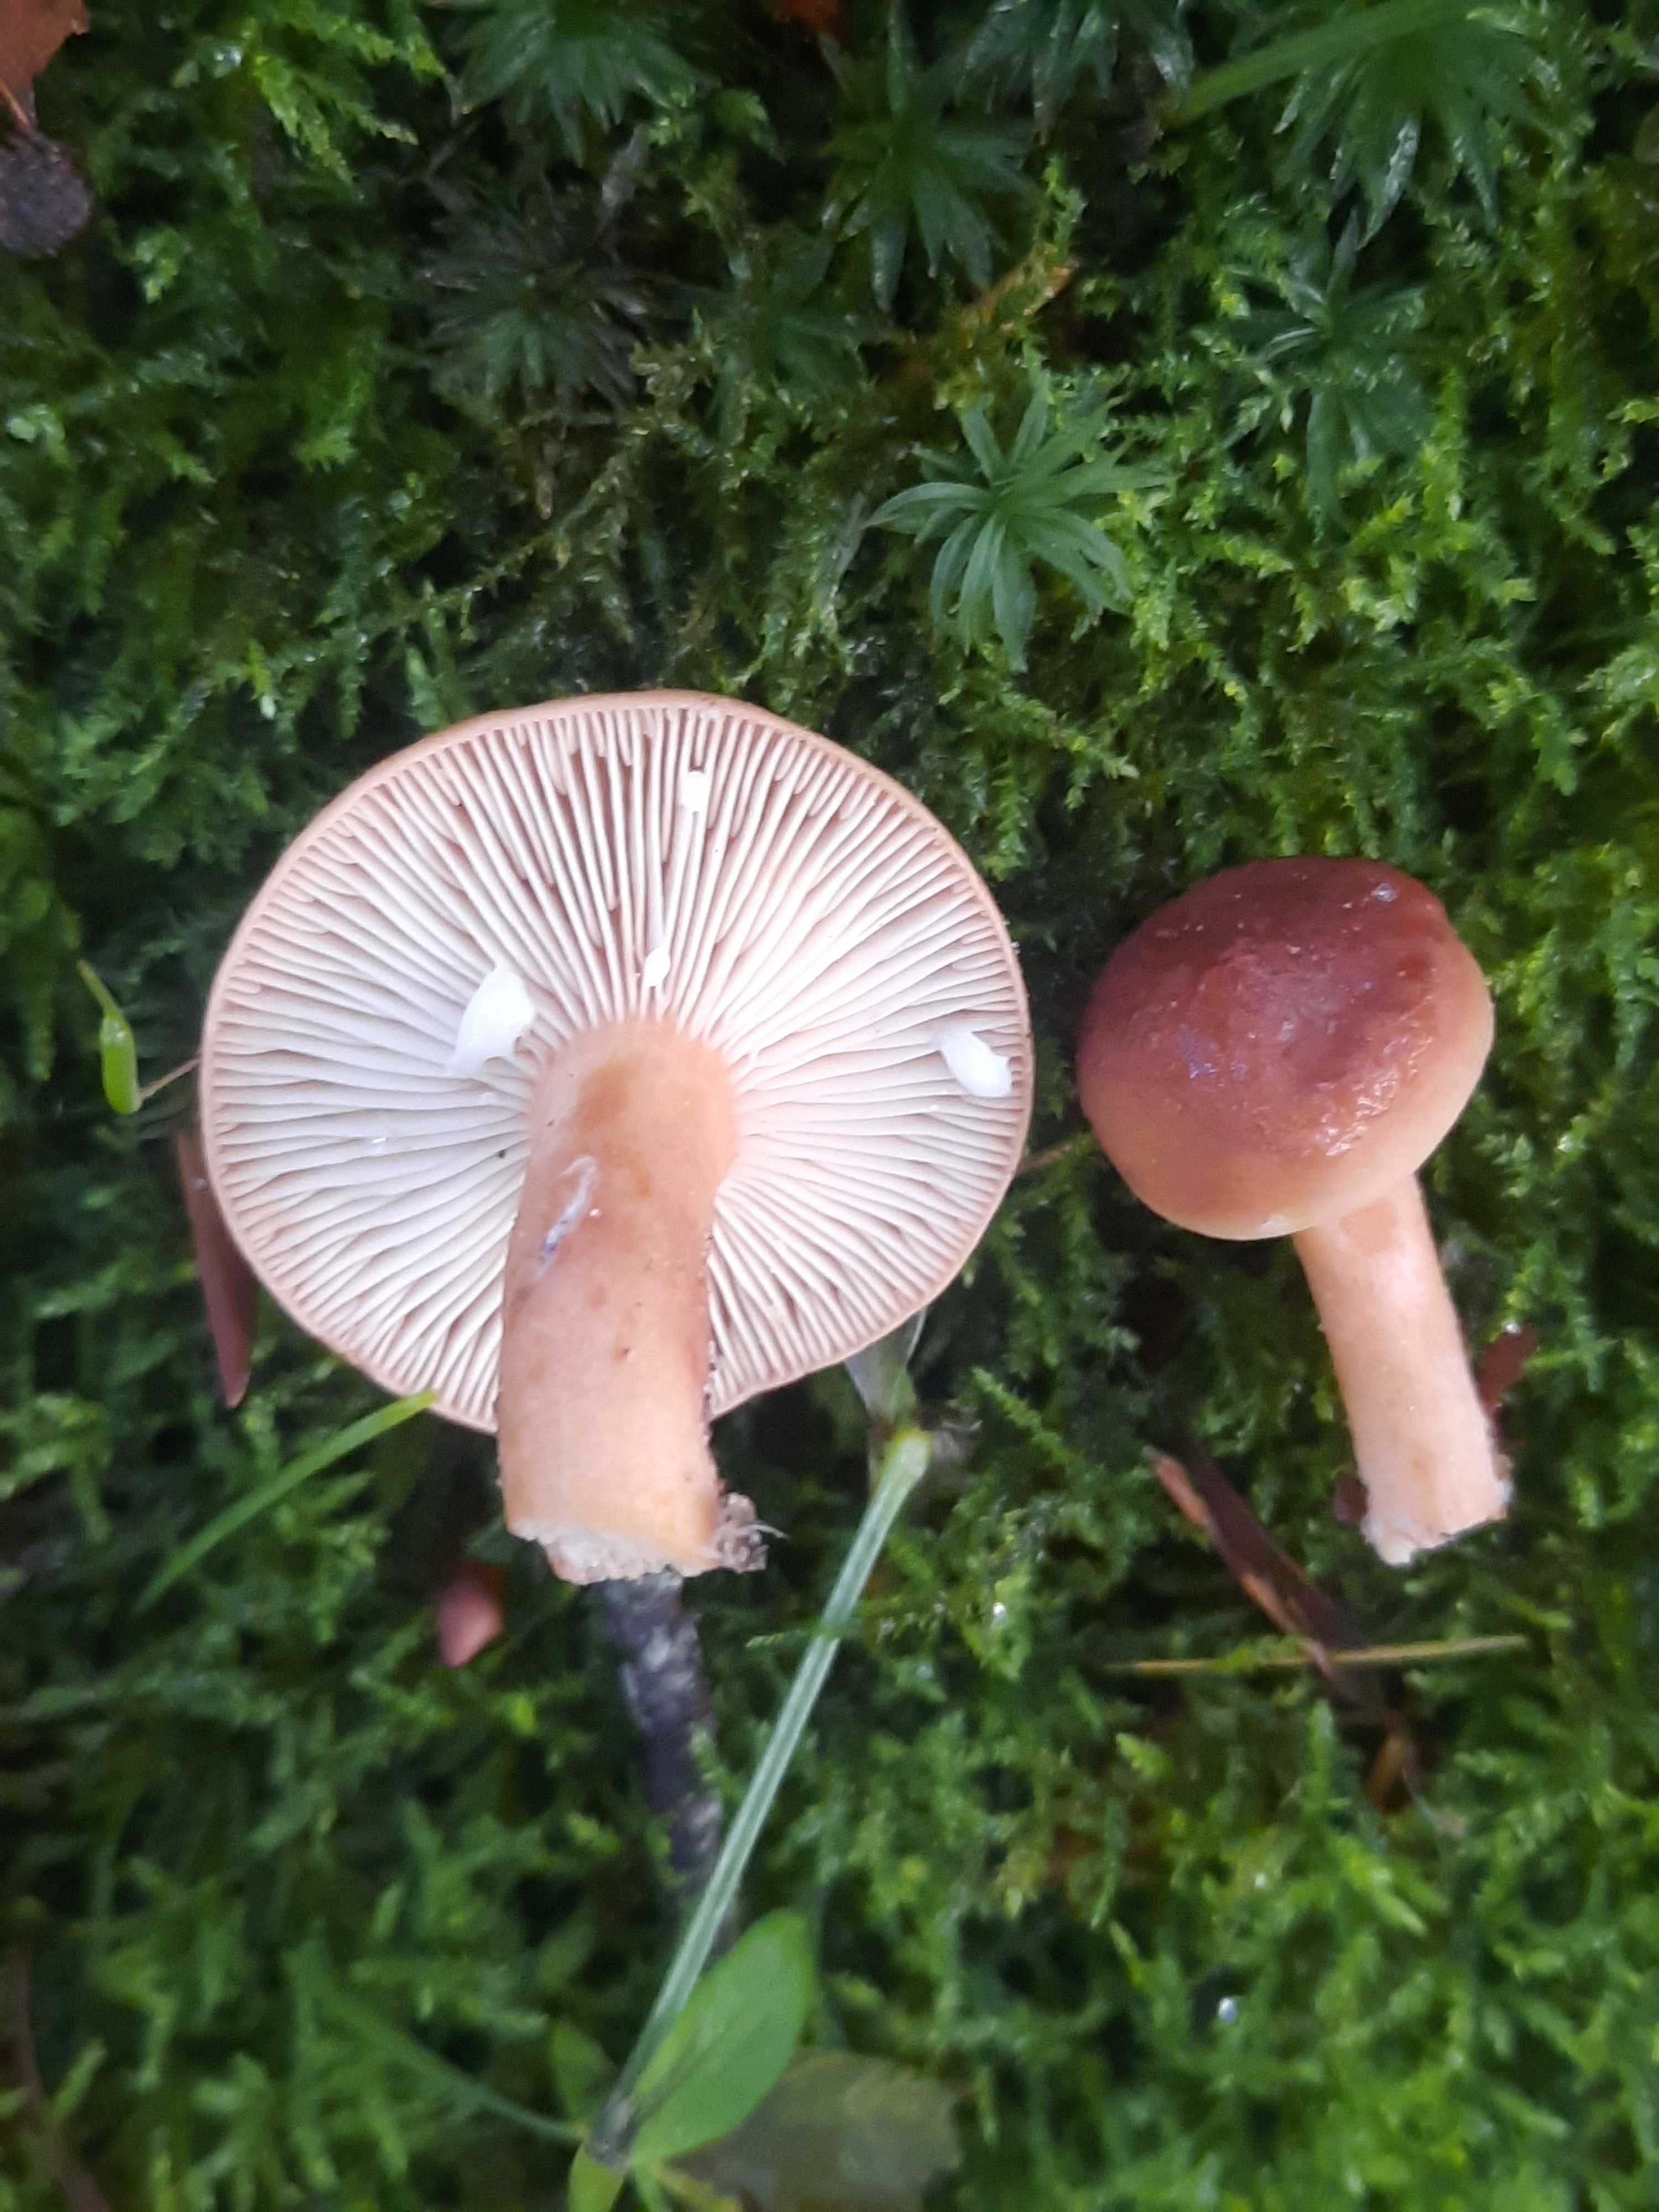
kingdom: Fungi
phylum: Basidiomycota
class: Agaricomycetes
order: Russulales
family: Russulaceae
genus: Lactarius
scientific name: Lactarius subdulcis
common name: sødlig mælkehat
